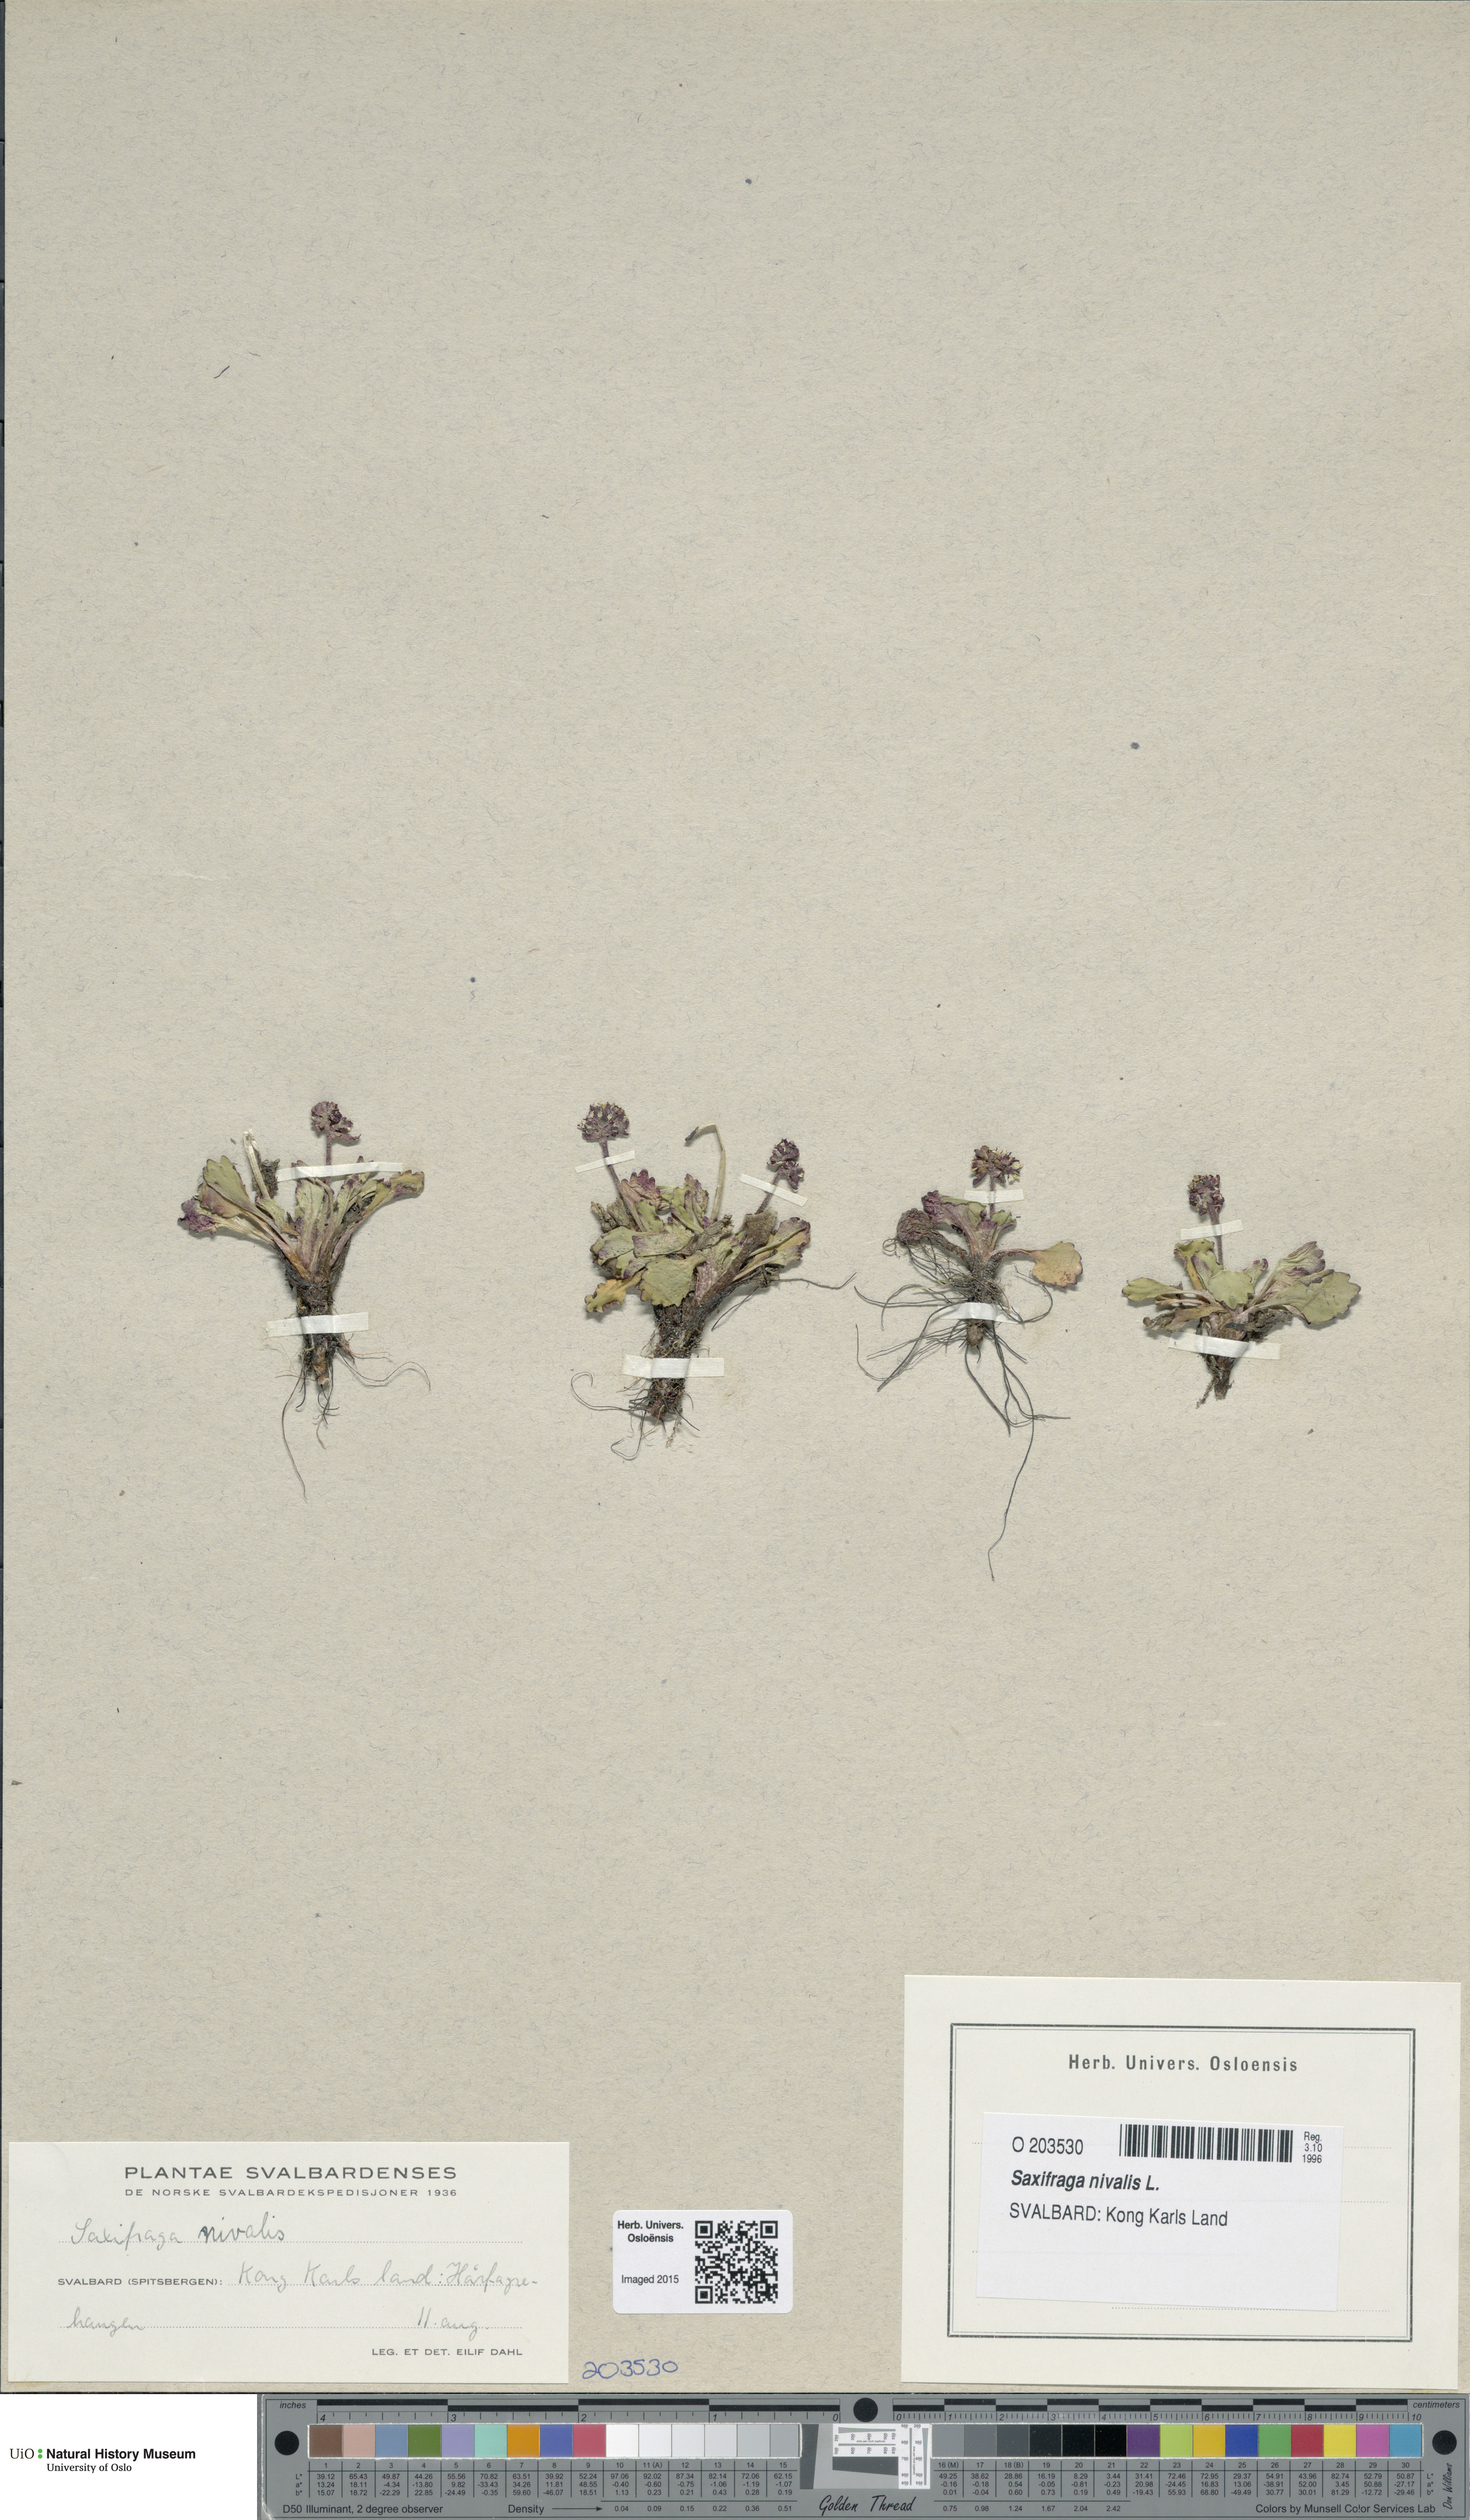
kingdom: Plantae
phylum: Tracheophyta
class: Magnoliopsida
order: Saxifragales
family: Saxifragaceae
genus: Micranthes
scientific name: Micranthes nivalis
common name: Alpine saxifrage
